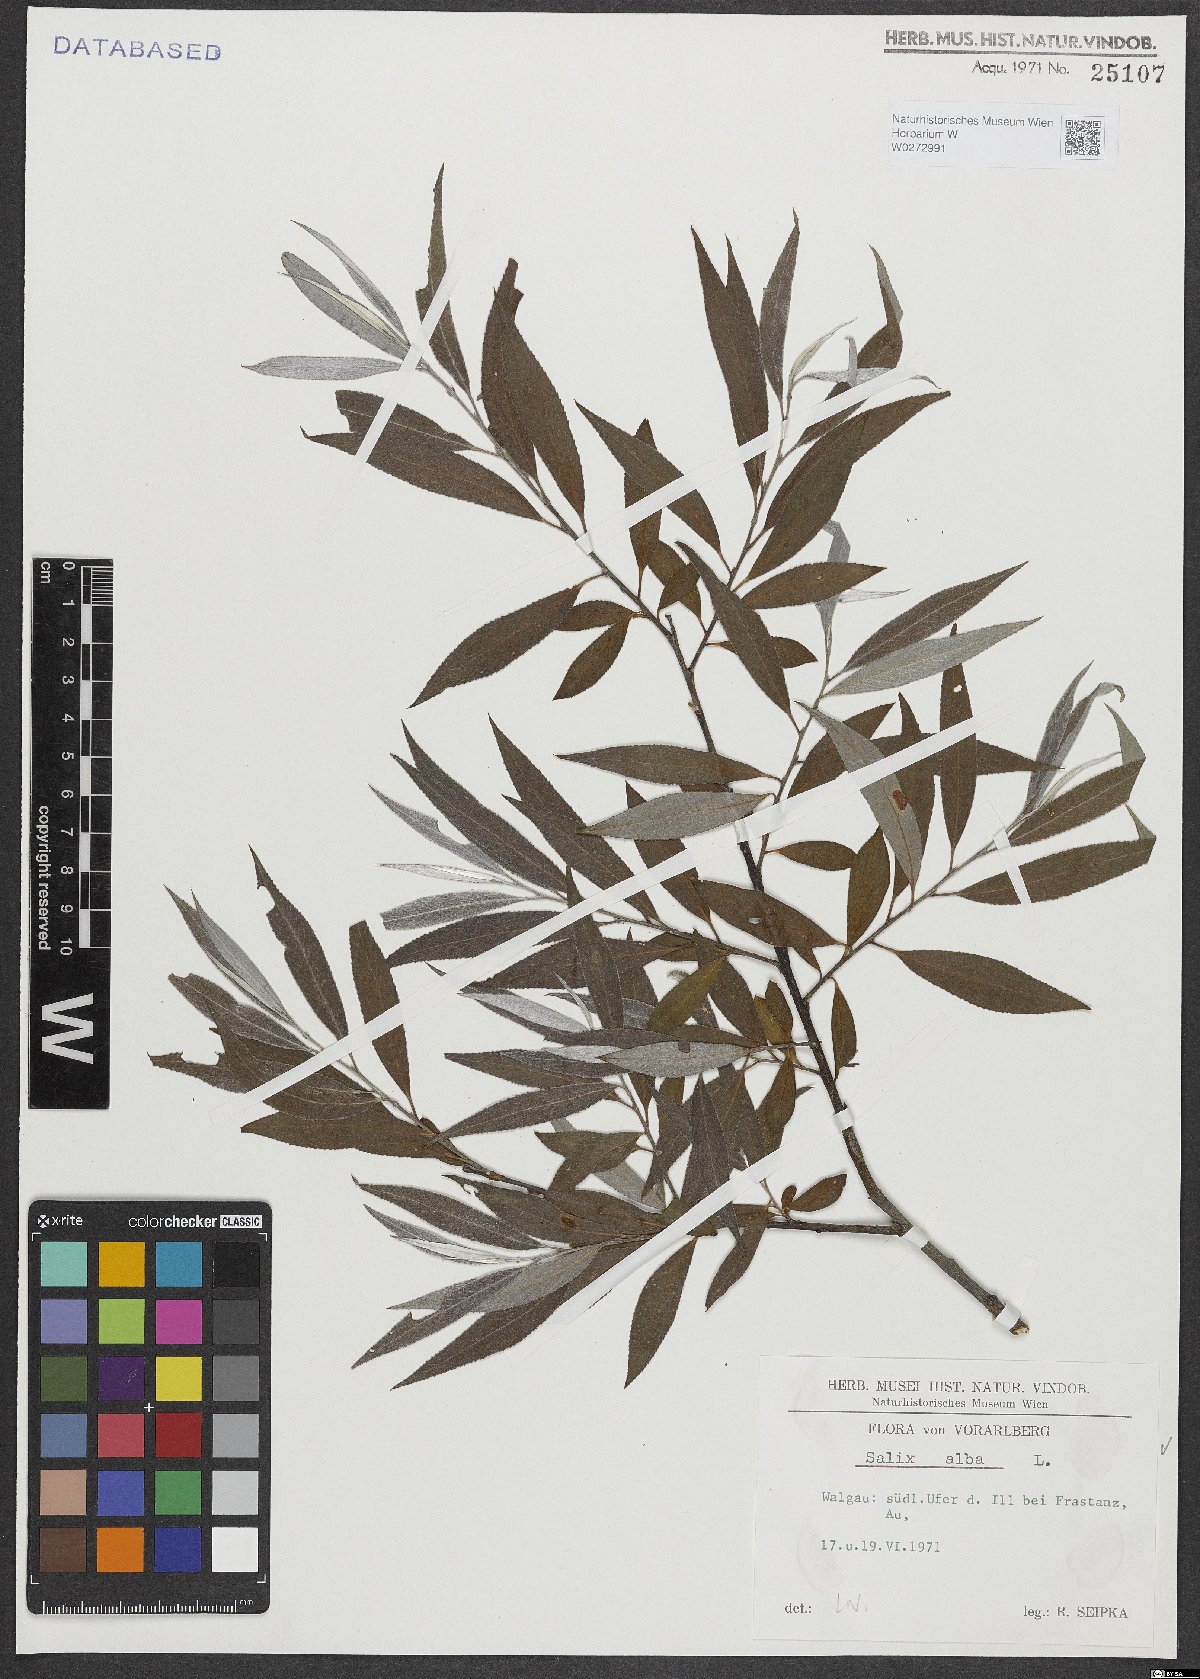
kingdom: Plantae
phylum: Tracheophyta
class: Magnoliopsida
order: Malpighiales
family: Salicaceae
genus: Salix
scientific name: Salix alba
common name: White willow
